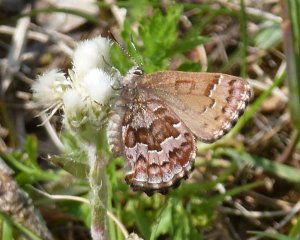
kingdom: Animalia
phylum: Arthropoda
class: Insecta
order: Lepidoptera
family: Lycaenidae
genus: Incisalia
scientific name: Incisalia niphon
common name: Eastern Pine Elfin
